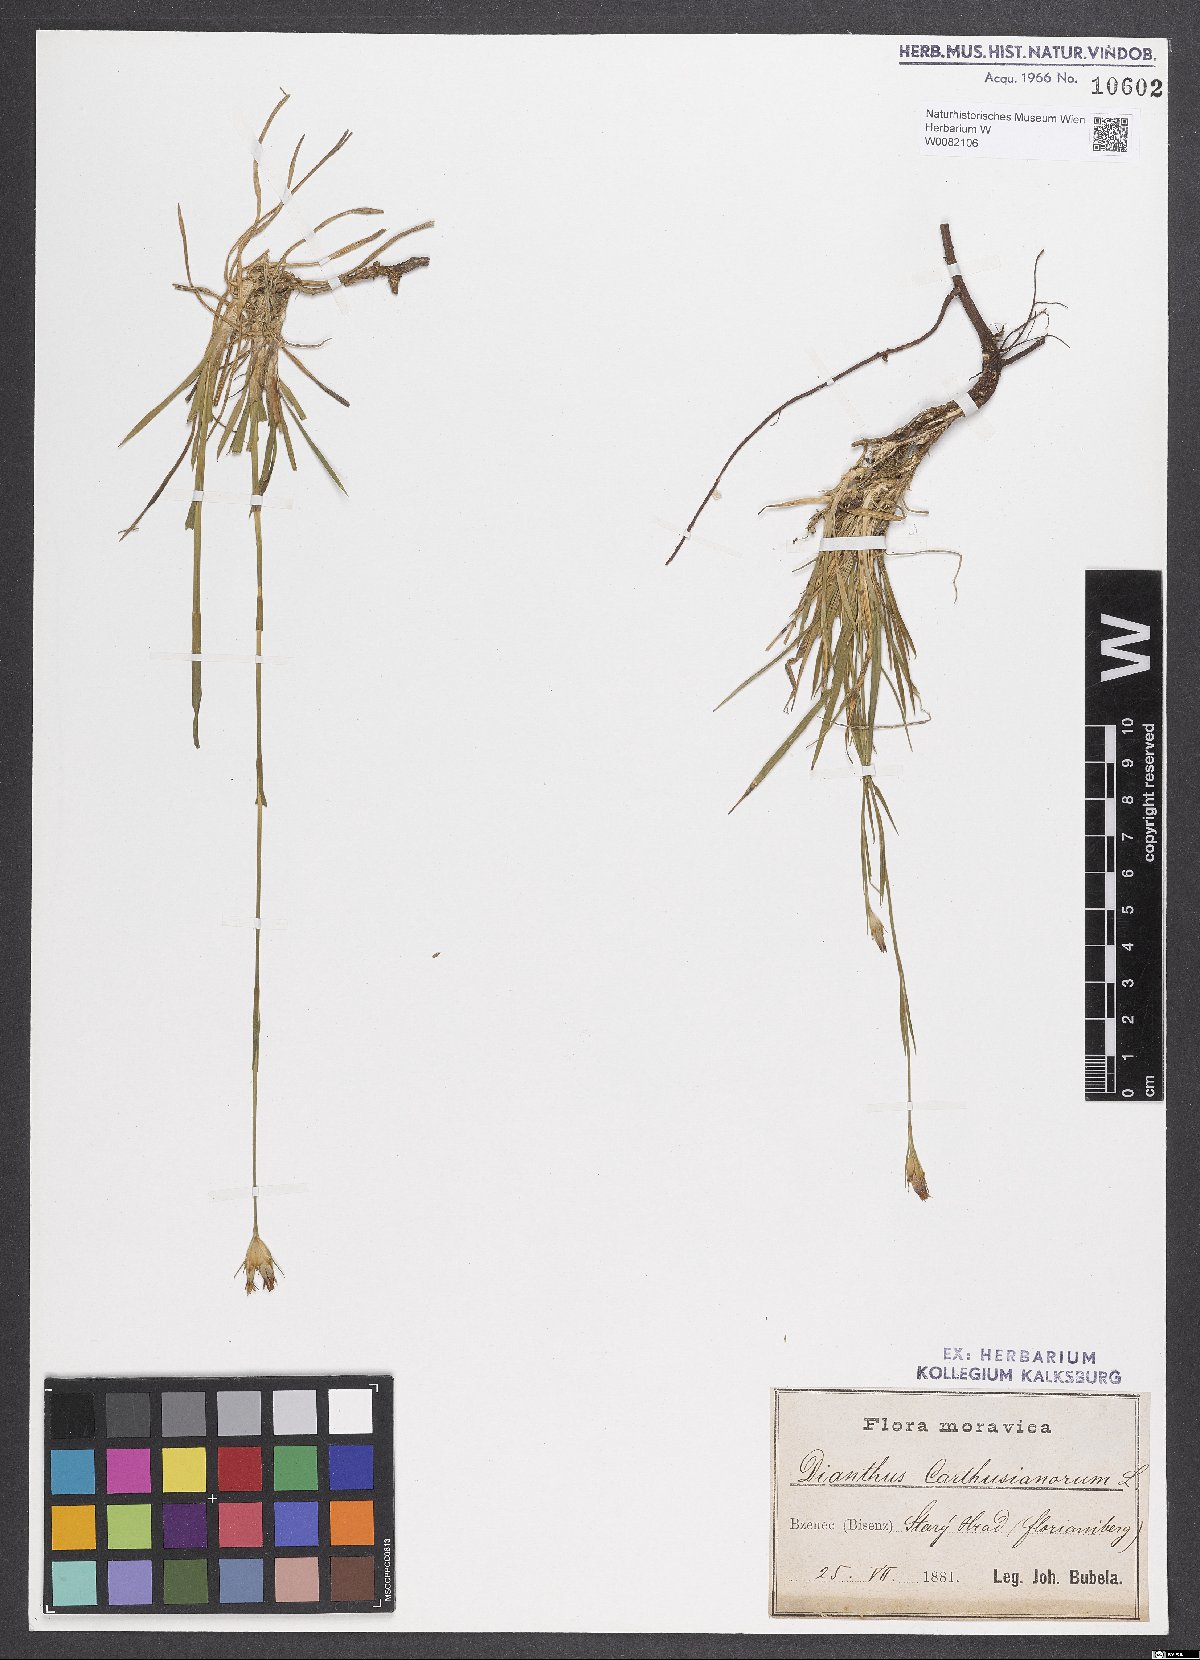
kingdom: Plantae
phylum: Tracheophyta
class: Magnoliopsida
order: Caryophyllales
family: Caryophyllaceae
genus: Dianthus
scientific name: Dianthus carthusianorum
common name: Carthusian pink
